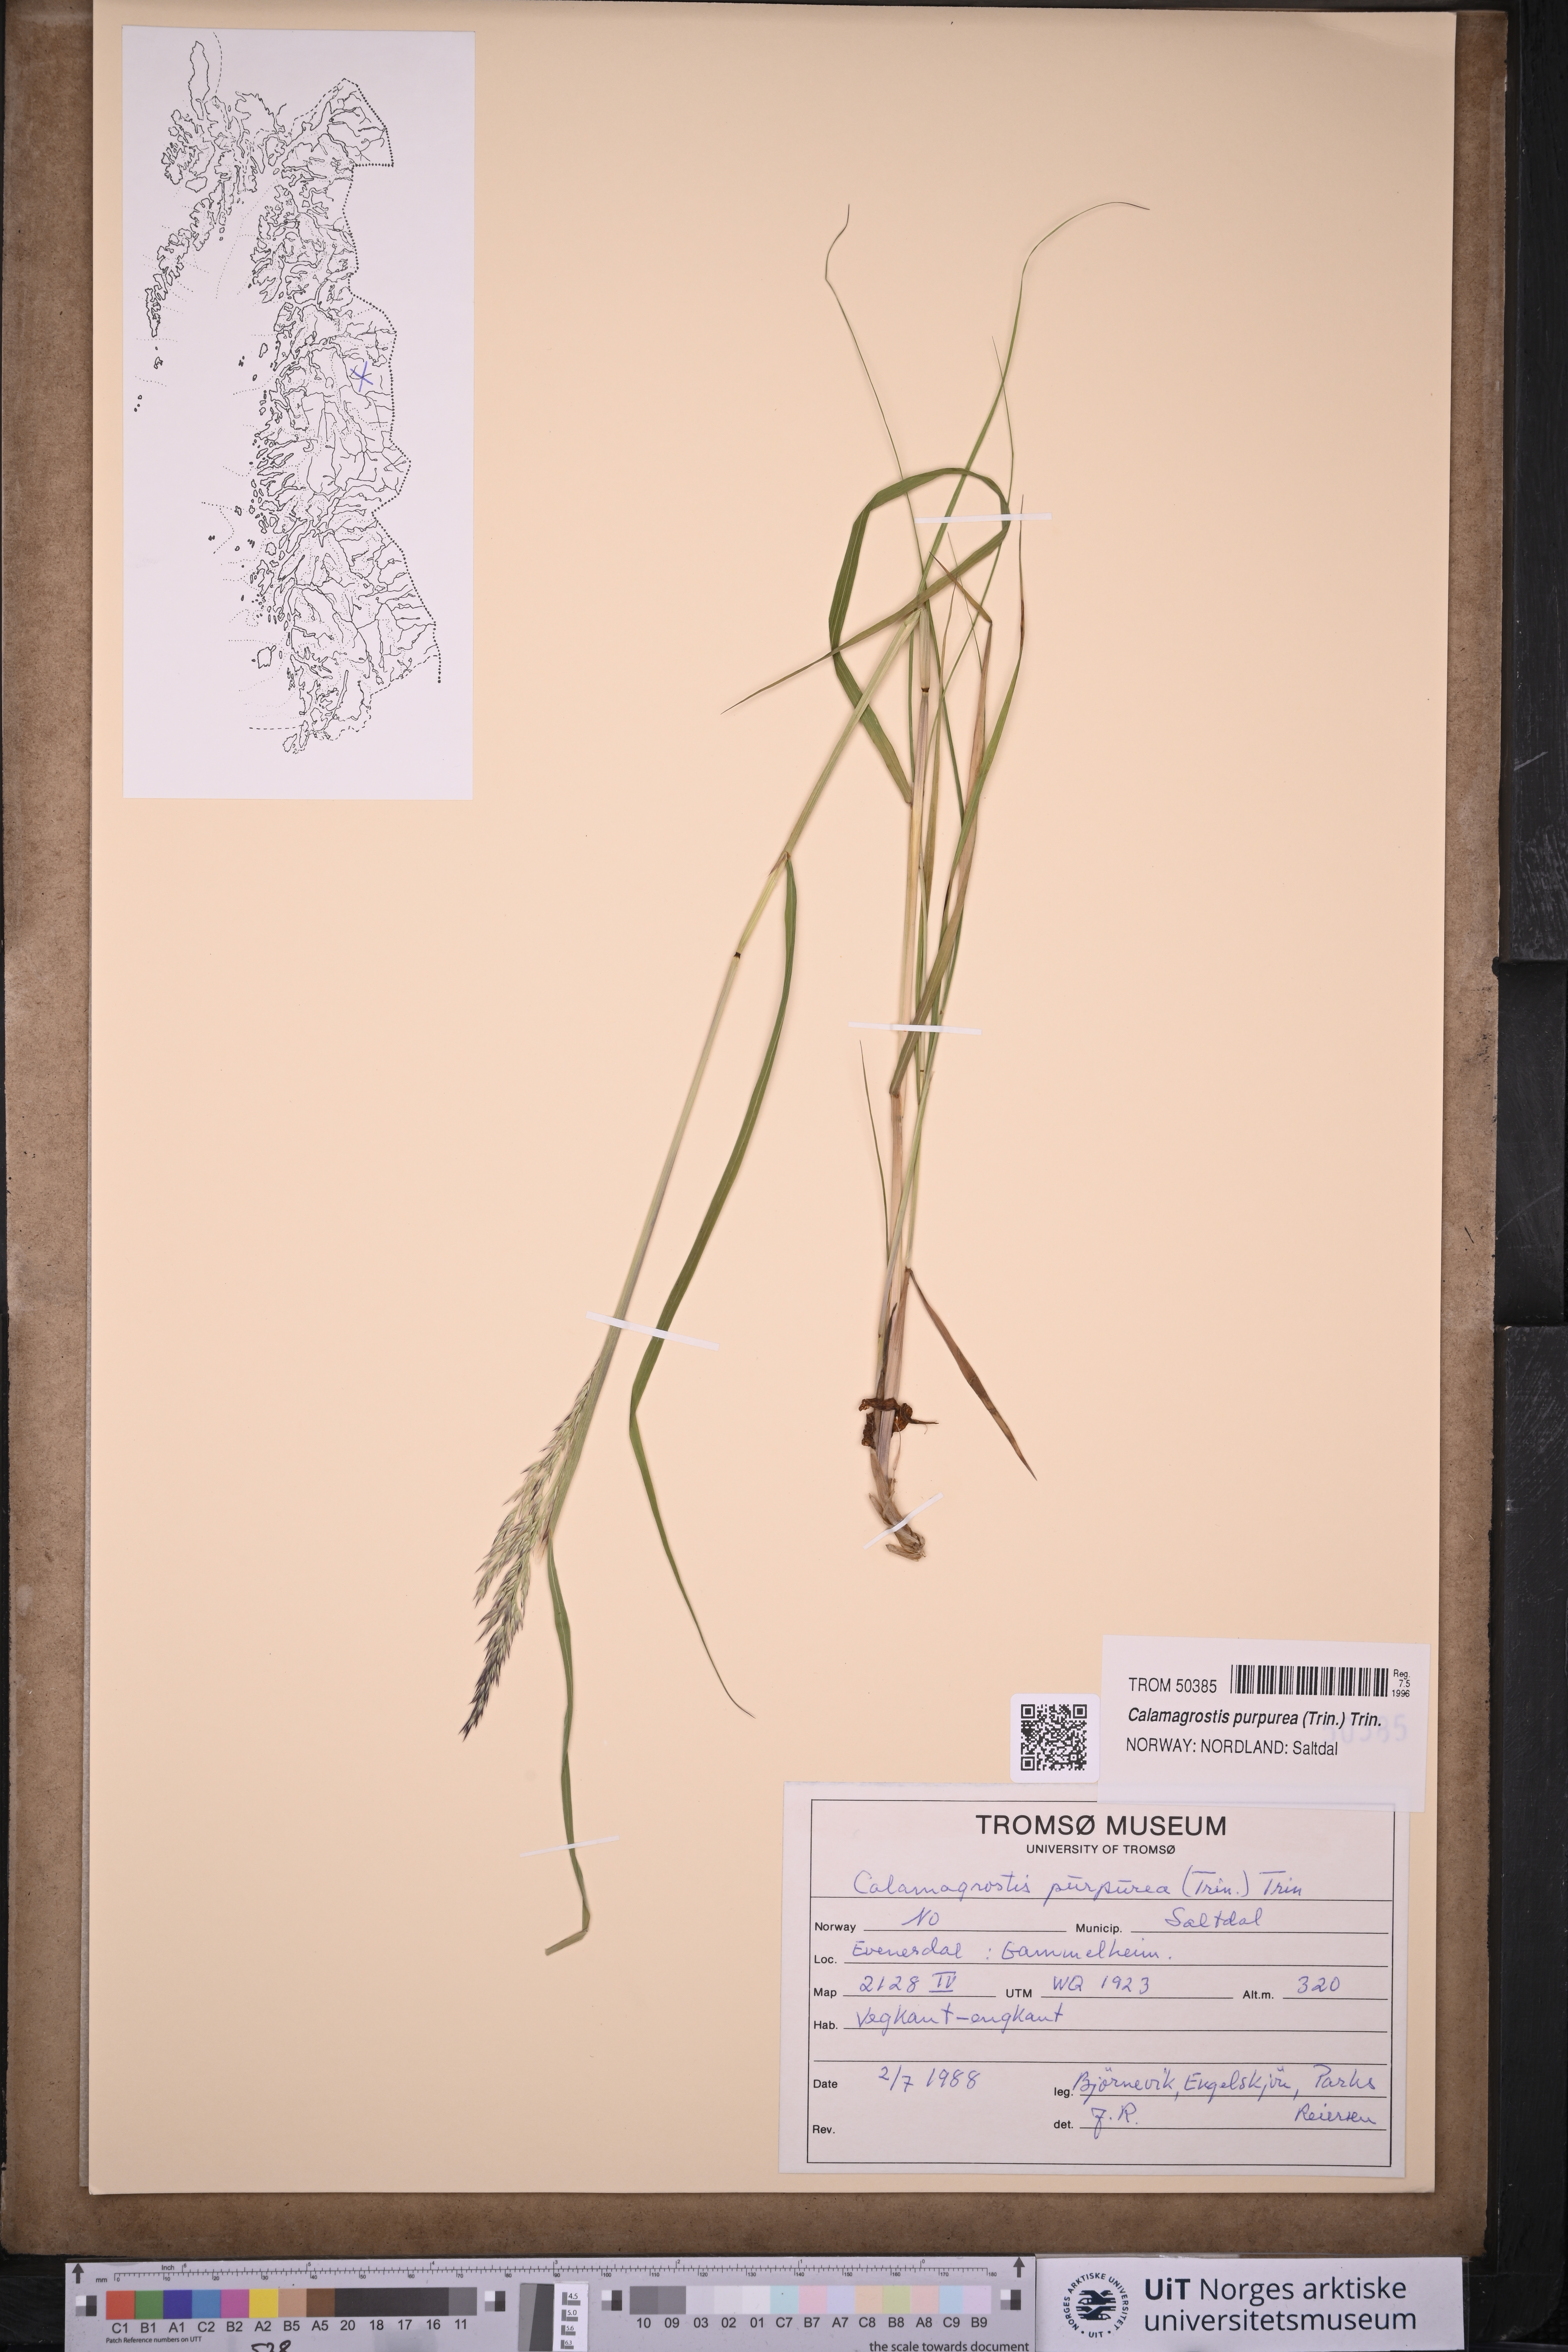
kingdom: Plantae
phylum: Tracheophyta
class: Liliopsida
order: Poales
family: Poaceae
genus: Calamagrostis
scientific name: Calamagrostis purpurea
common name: Scandinavian small-reed
